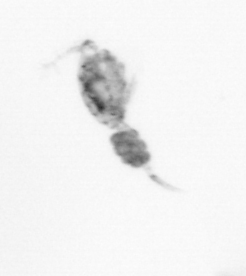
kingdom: Animalia
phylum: Arthropoda
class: Copepoda
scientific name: Copepoda
